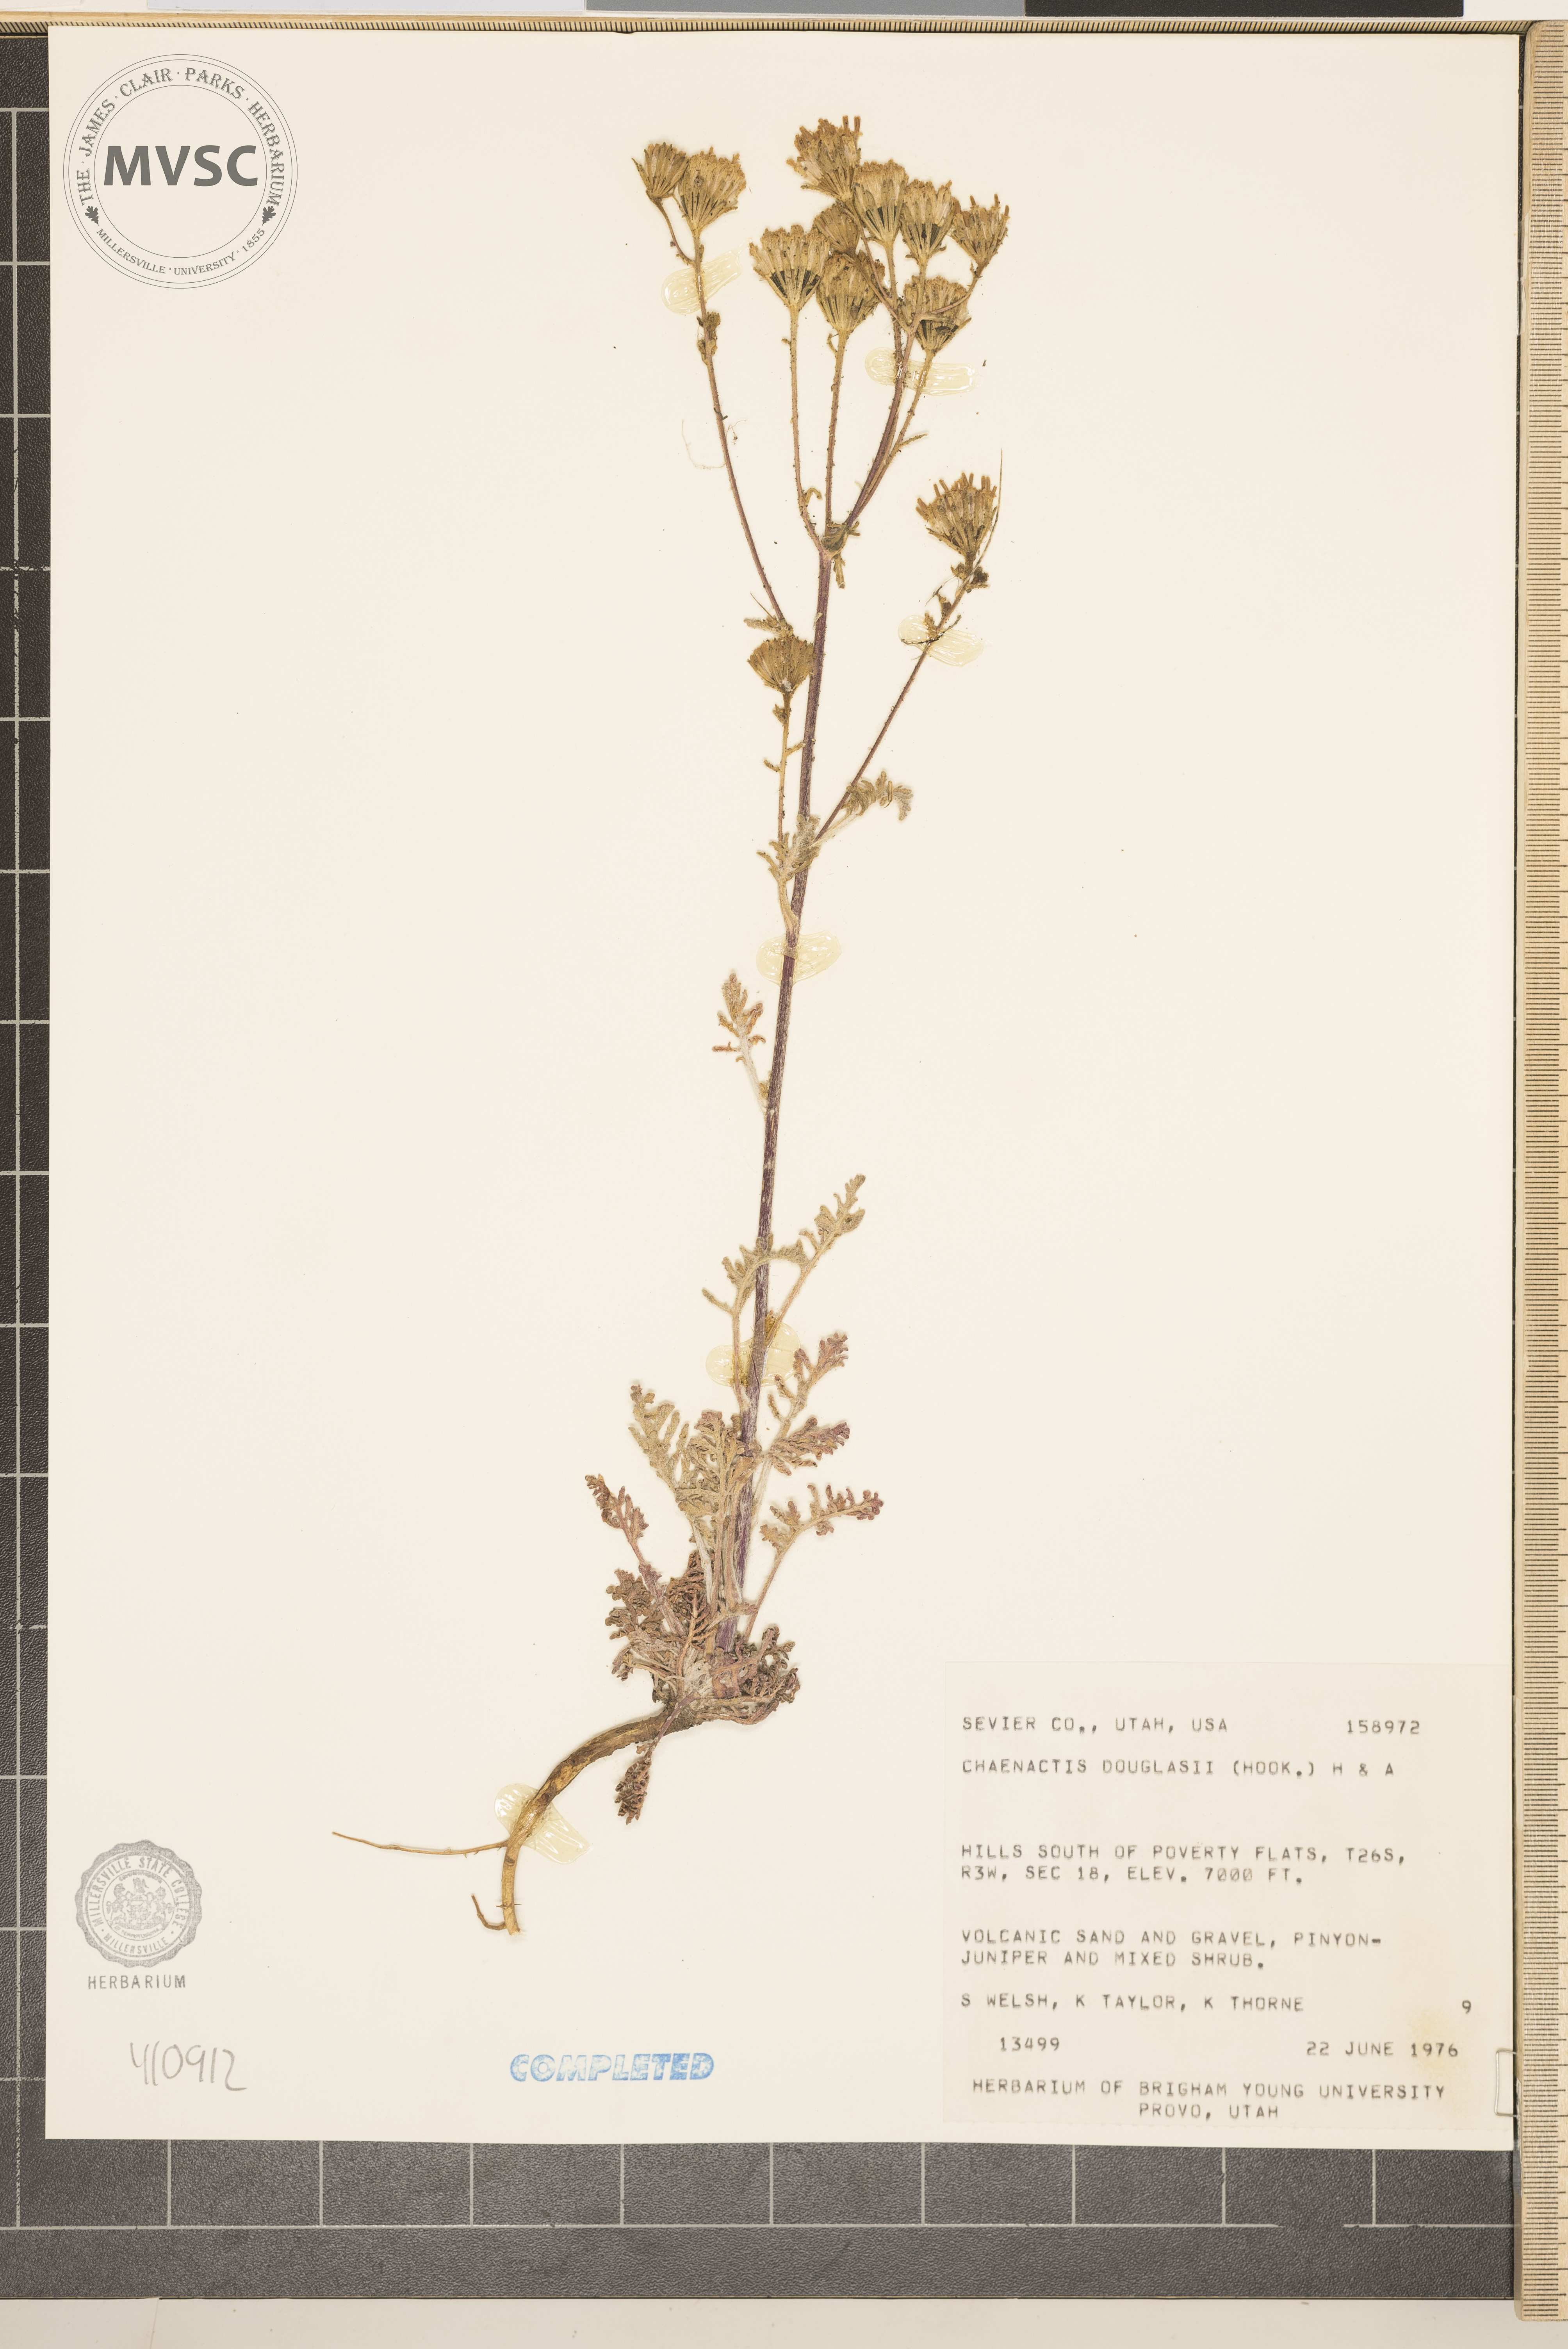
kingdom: Plantae
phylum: Tracheophyta
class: Magnoliopsida
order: Asterales
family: Asteraceae
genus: Chaenactis
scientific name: Chaenactis douglasii
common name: Hoary pincushion
